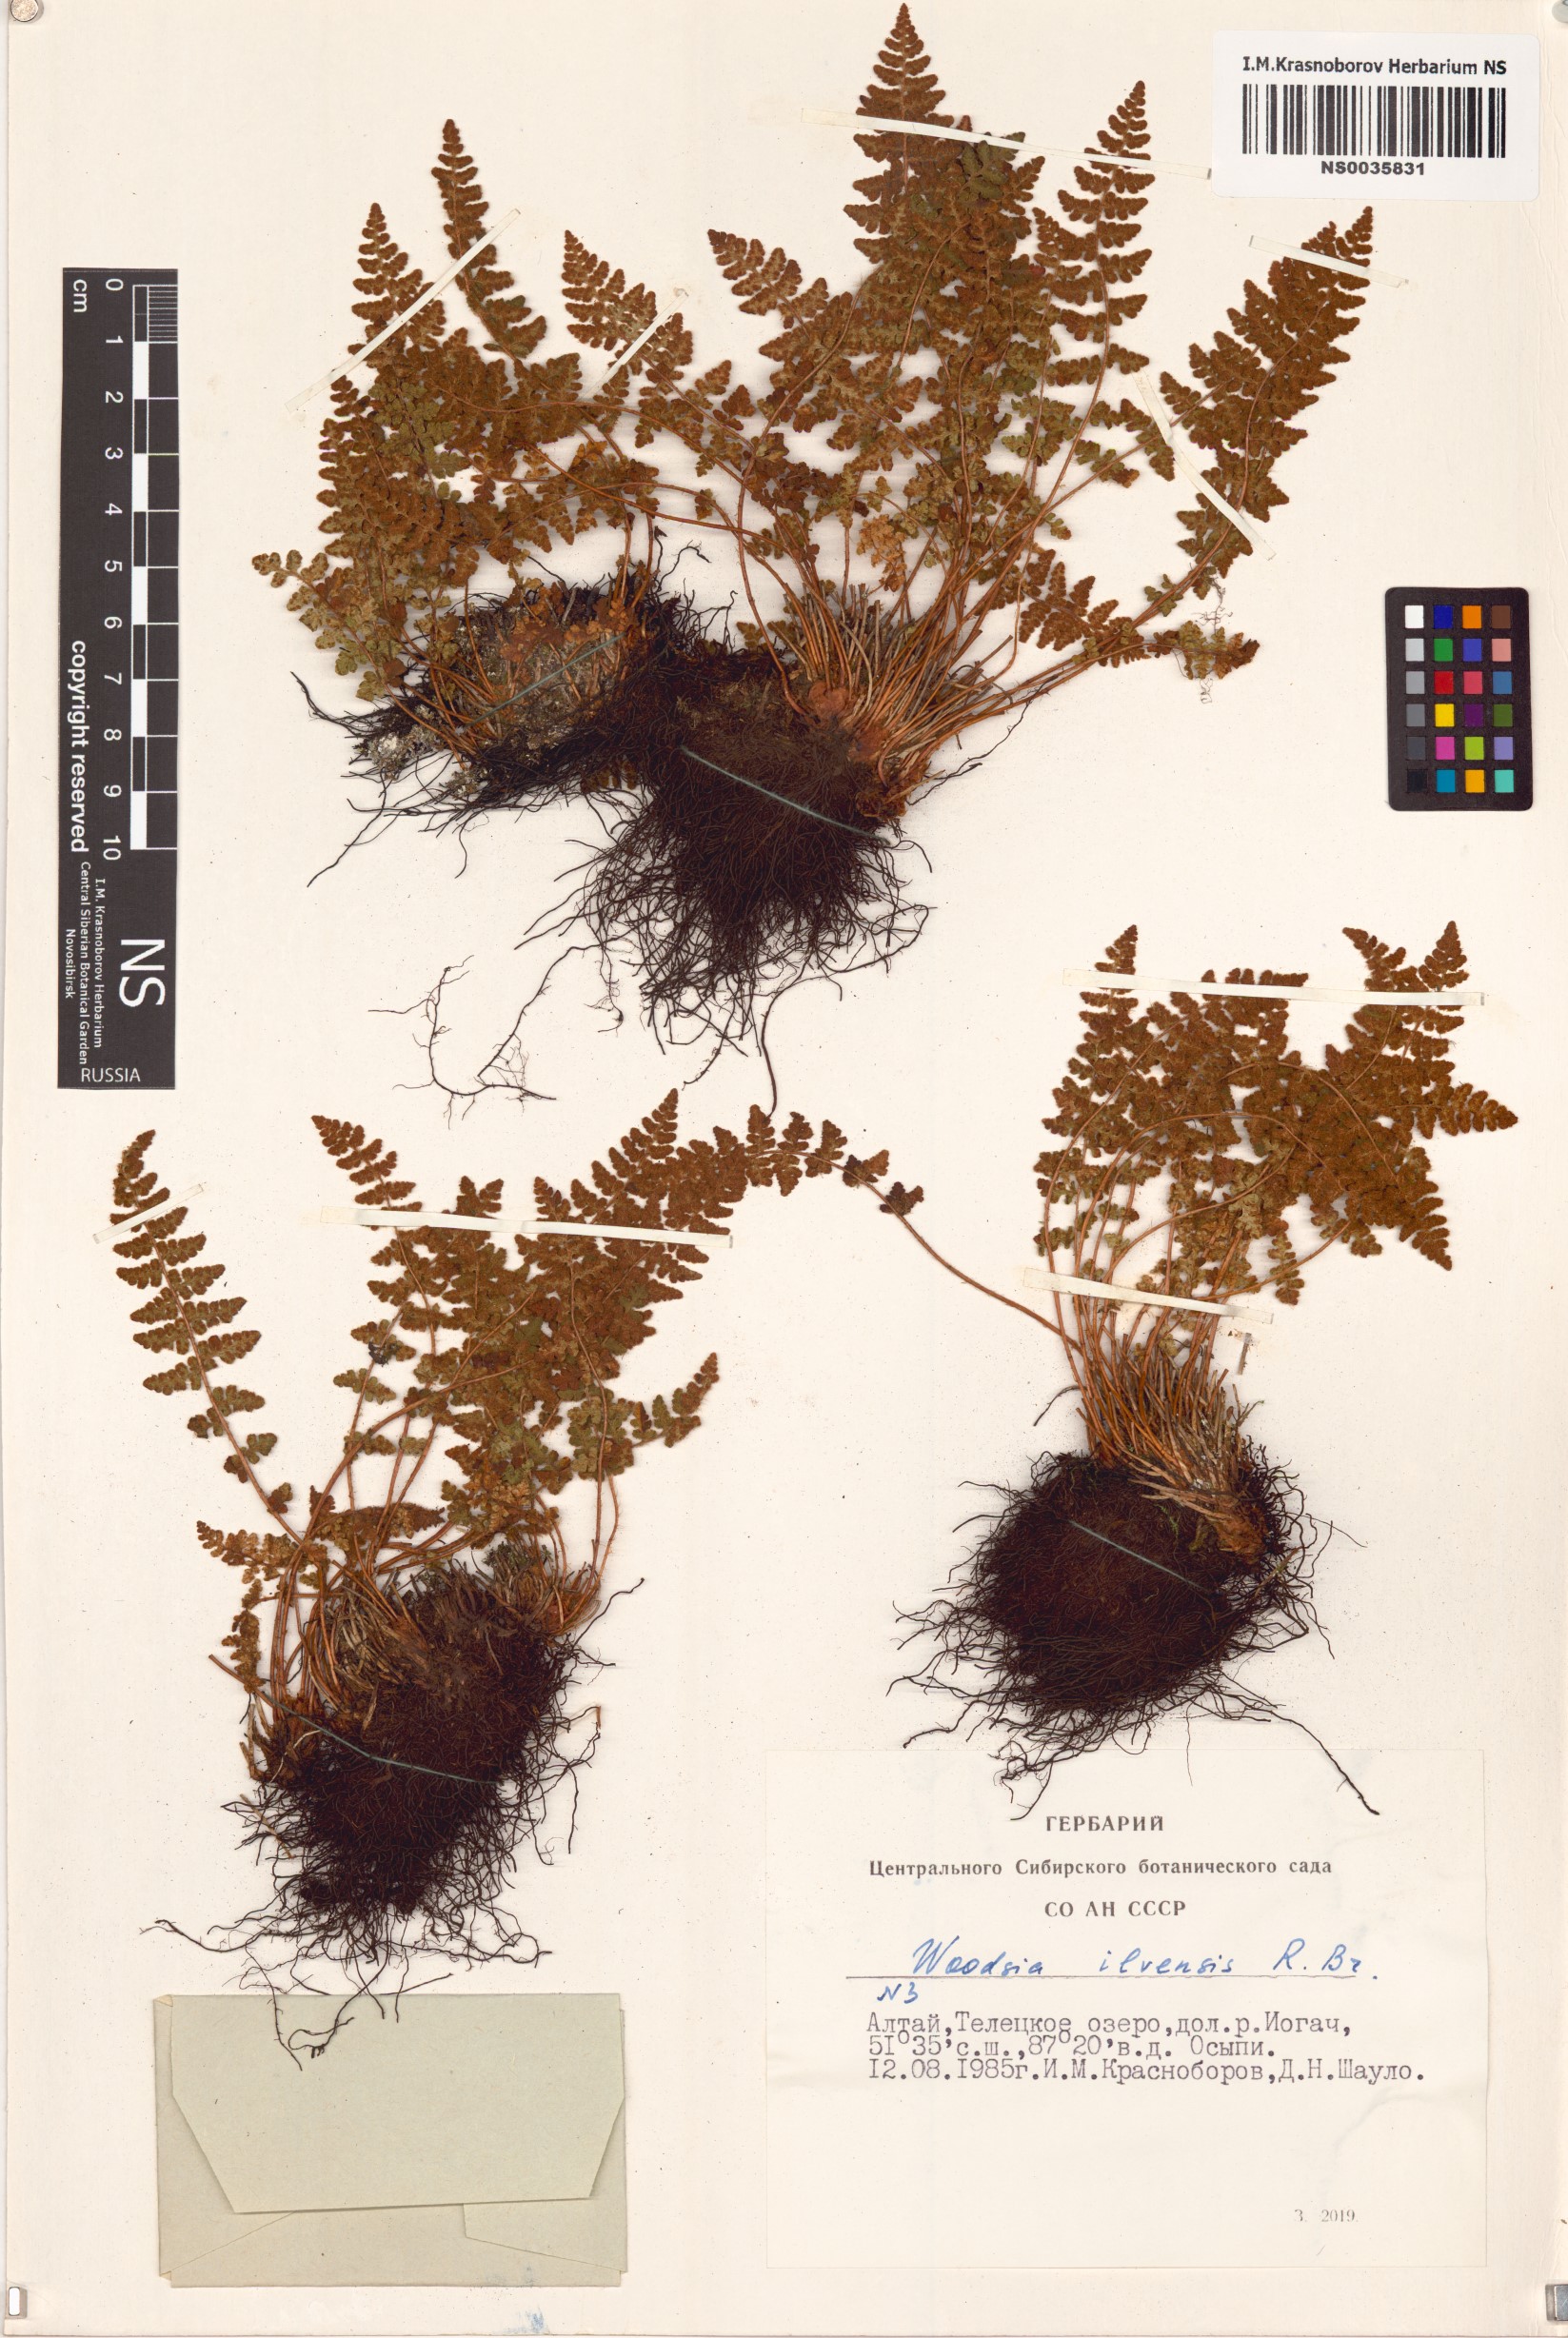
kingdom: Plantae
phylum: Tracheophyta
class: Polypodiopsida
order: Polypodiales
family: Woodsiaceae
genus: Woodsia
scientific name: Woodsia ilvensis
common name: Fragrant woodsia
